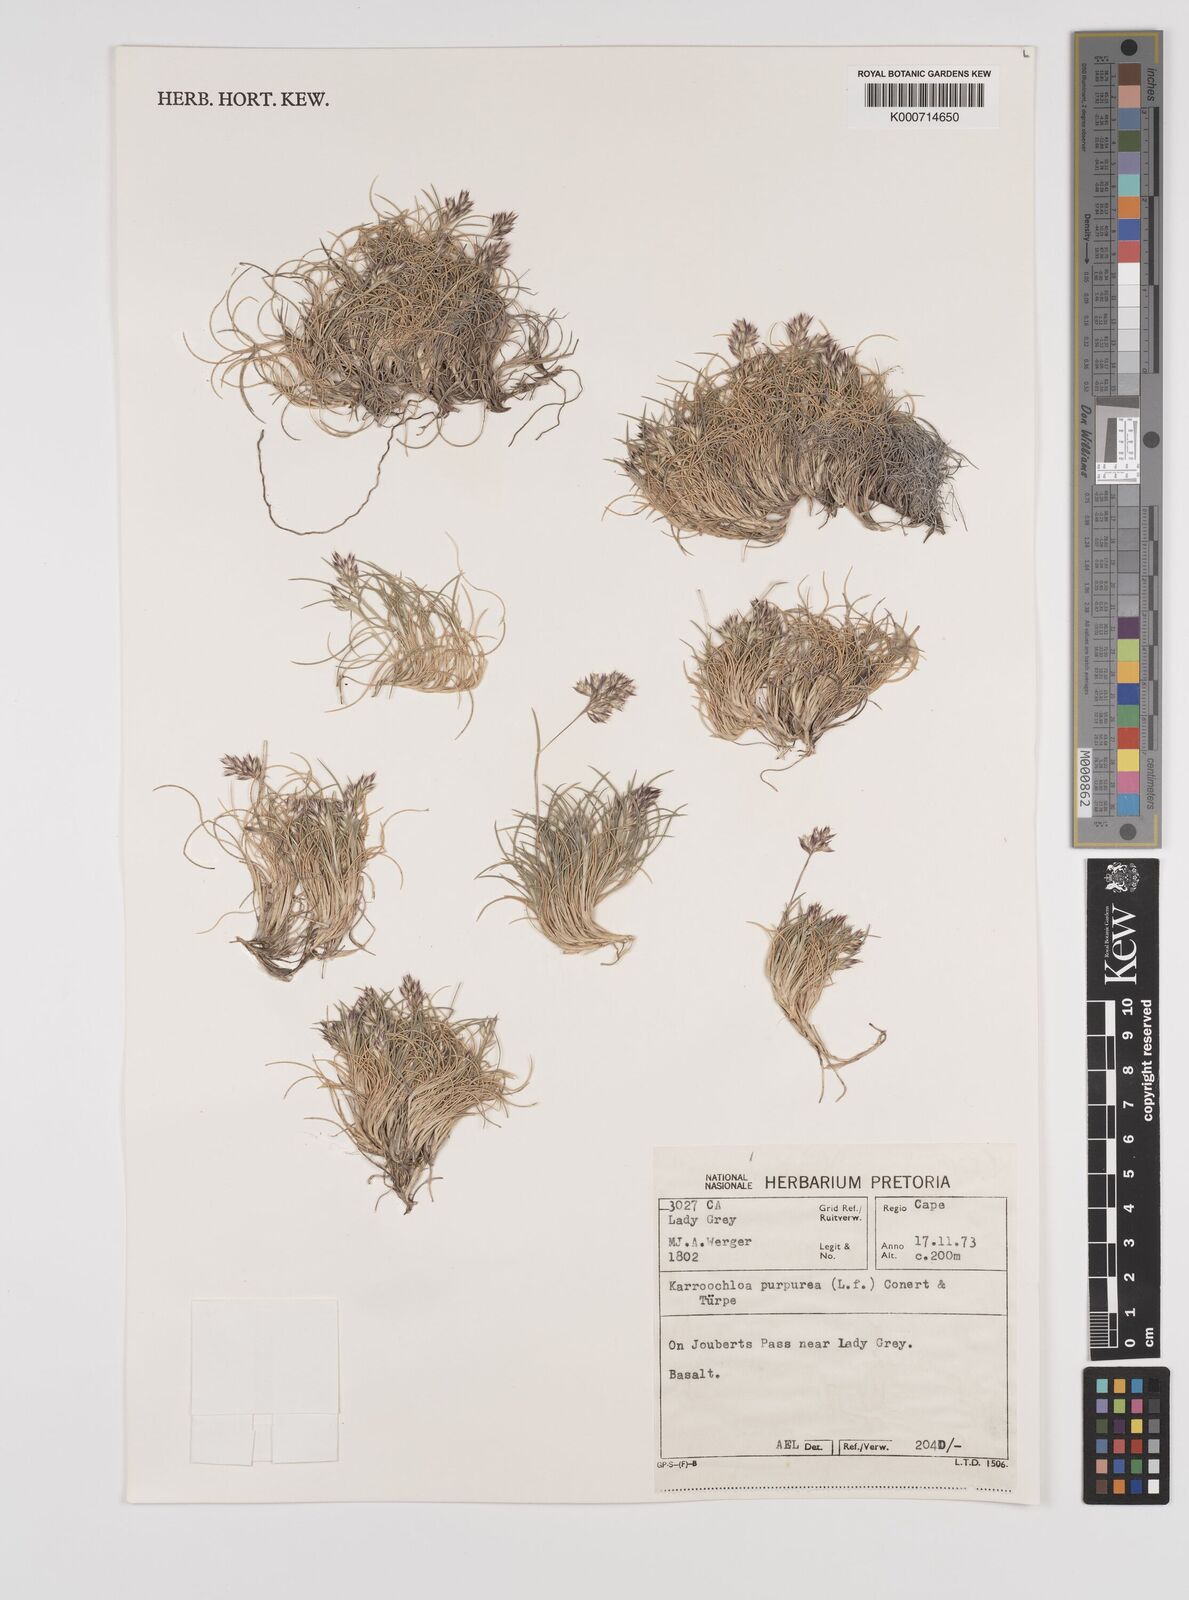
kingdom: Plantae
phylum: Tracheophyta
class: Liliopsida
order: Poales
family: Poaceae
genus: Rytidosperma
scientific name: Rytidosperma
